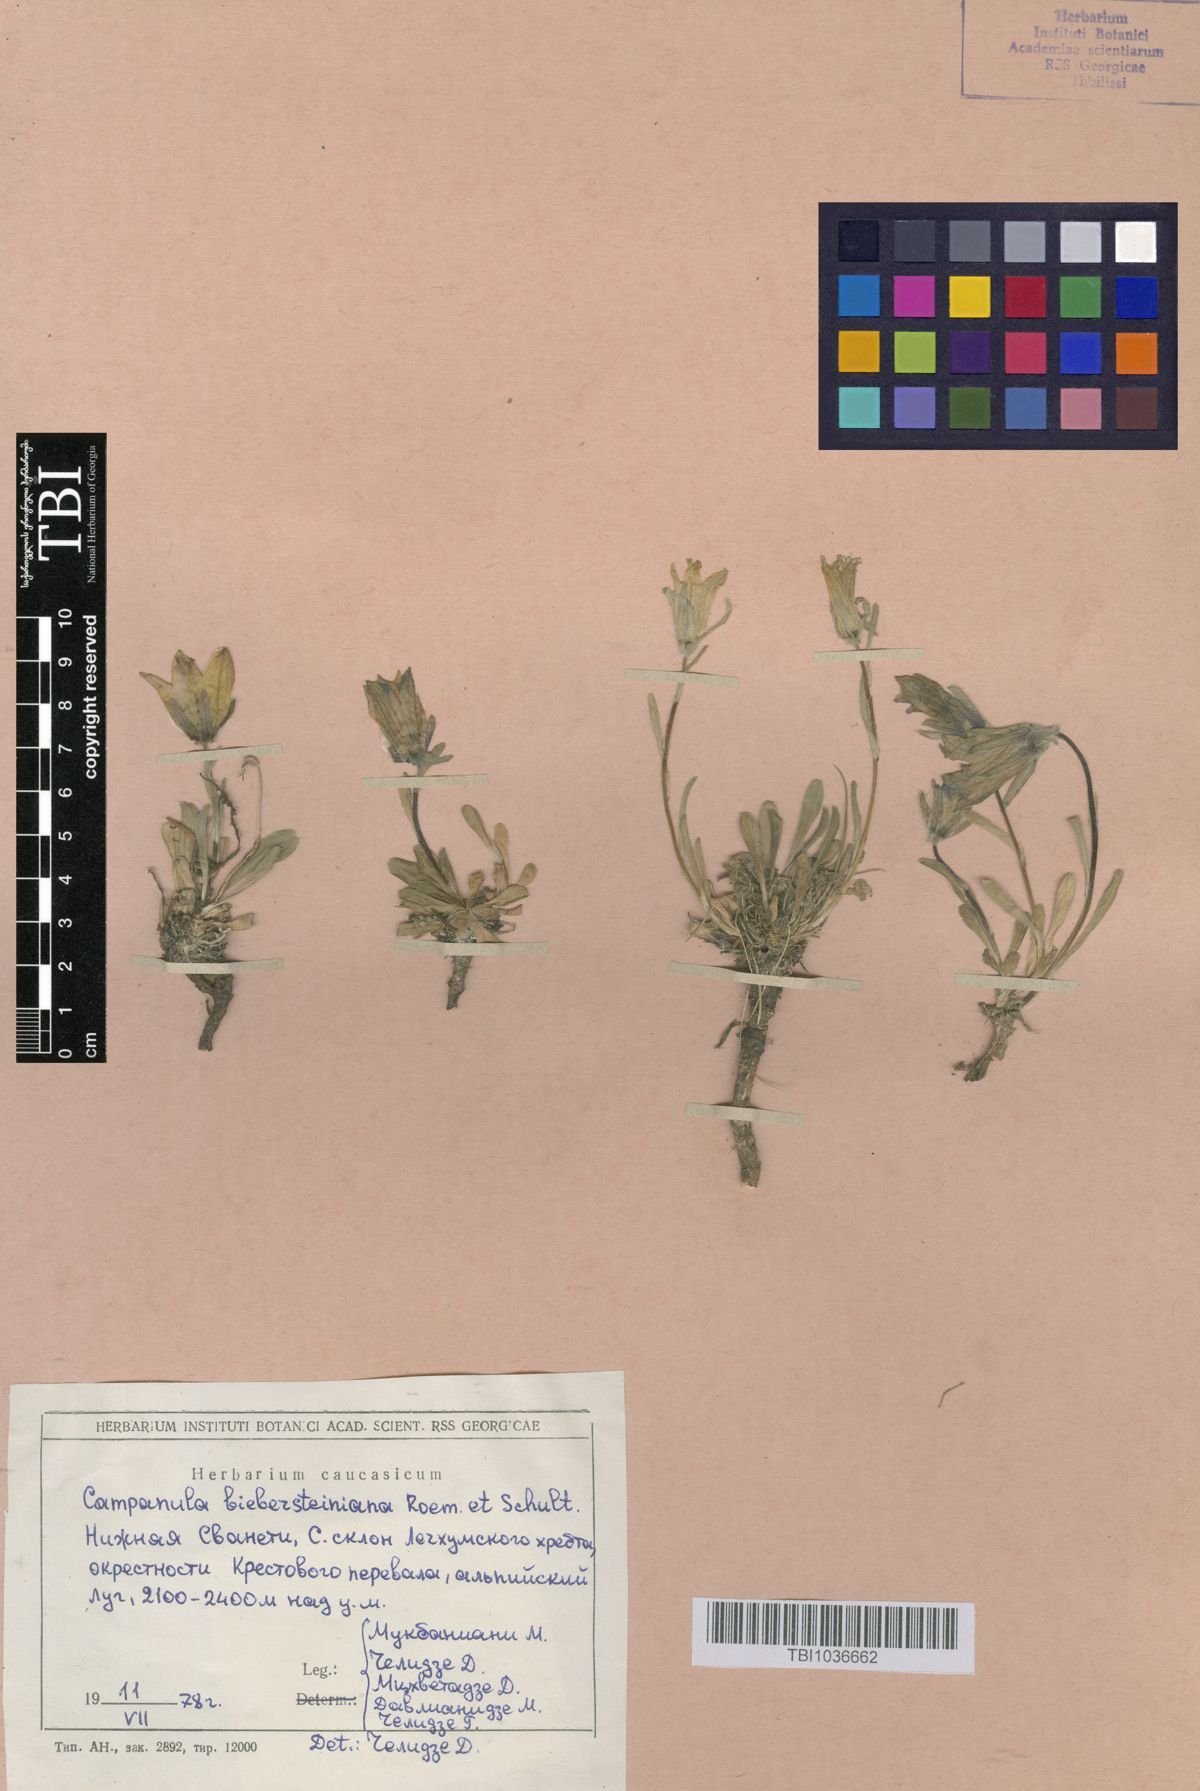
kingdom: Plantae
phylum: Tracheophyta
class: Magnoliopsida
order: Asterales
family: Campanulaceae
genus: Campanula
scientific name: Campanula tridentata
